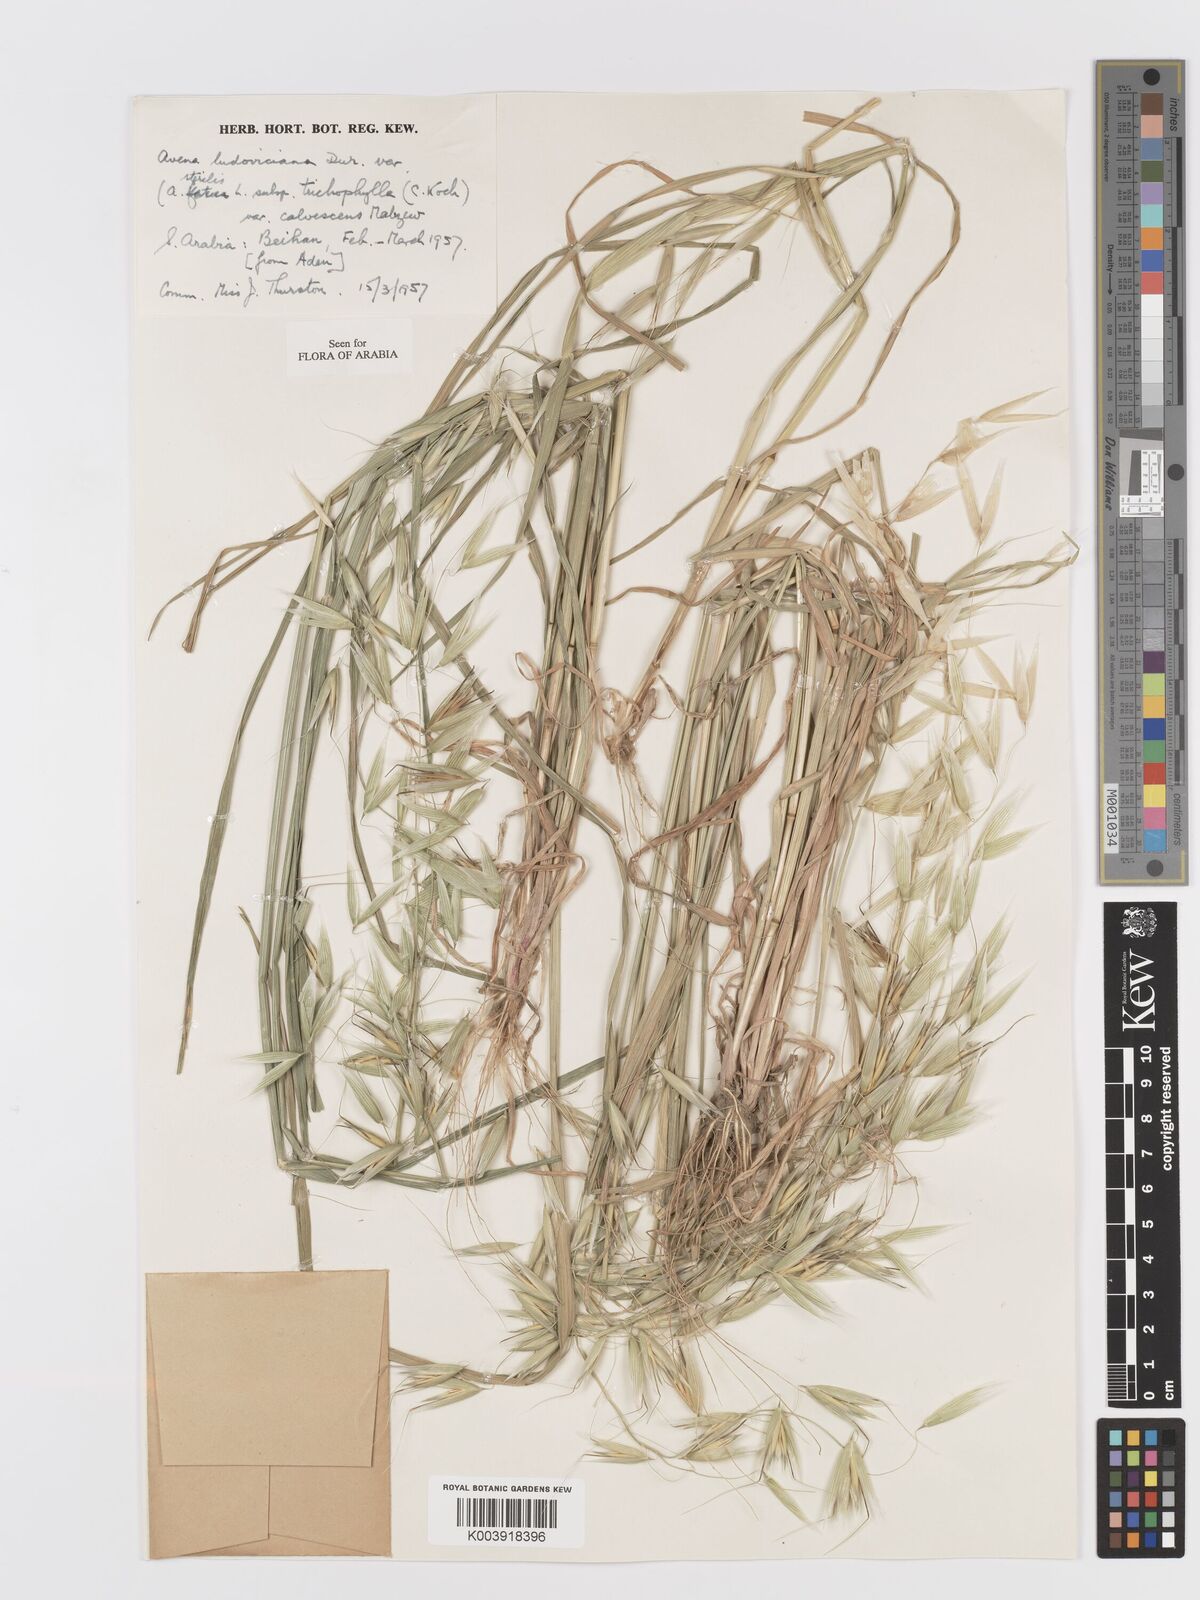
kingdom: Plantae
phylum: Tracheophyta
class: Liliopsida
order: Poales
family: Poaceae
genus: Avena
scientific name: Avena sterilis
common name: Animated oat
